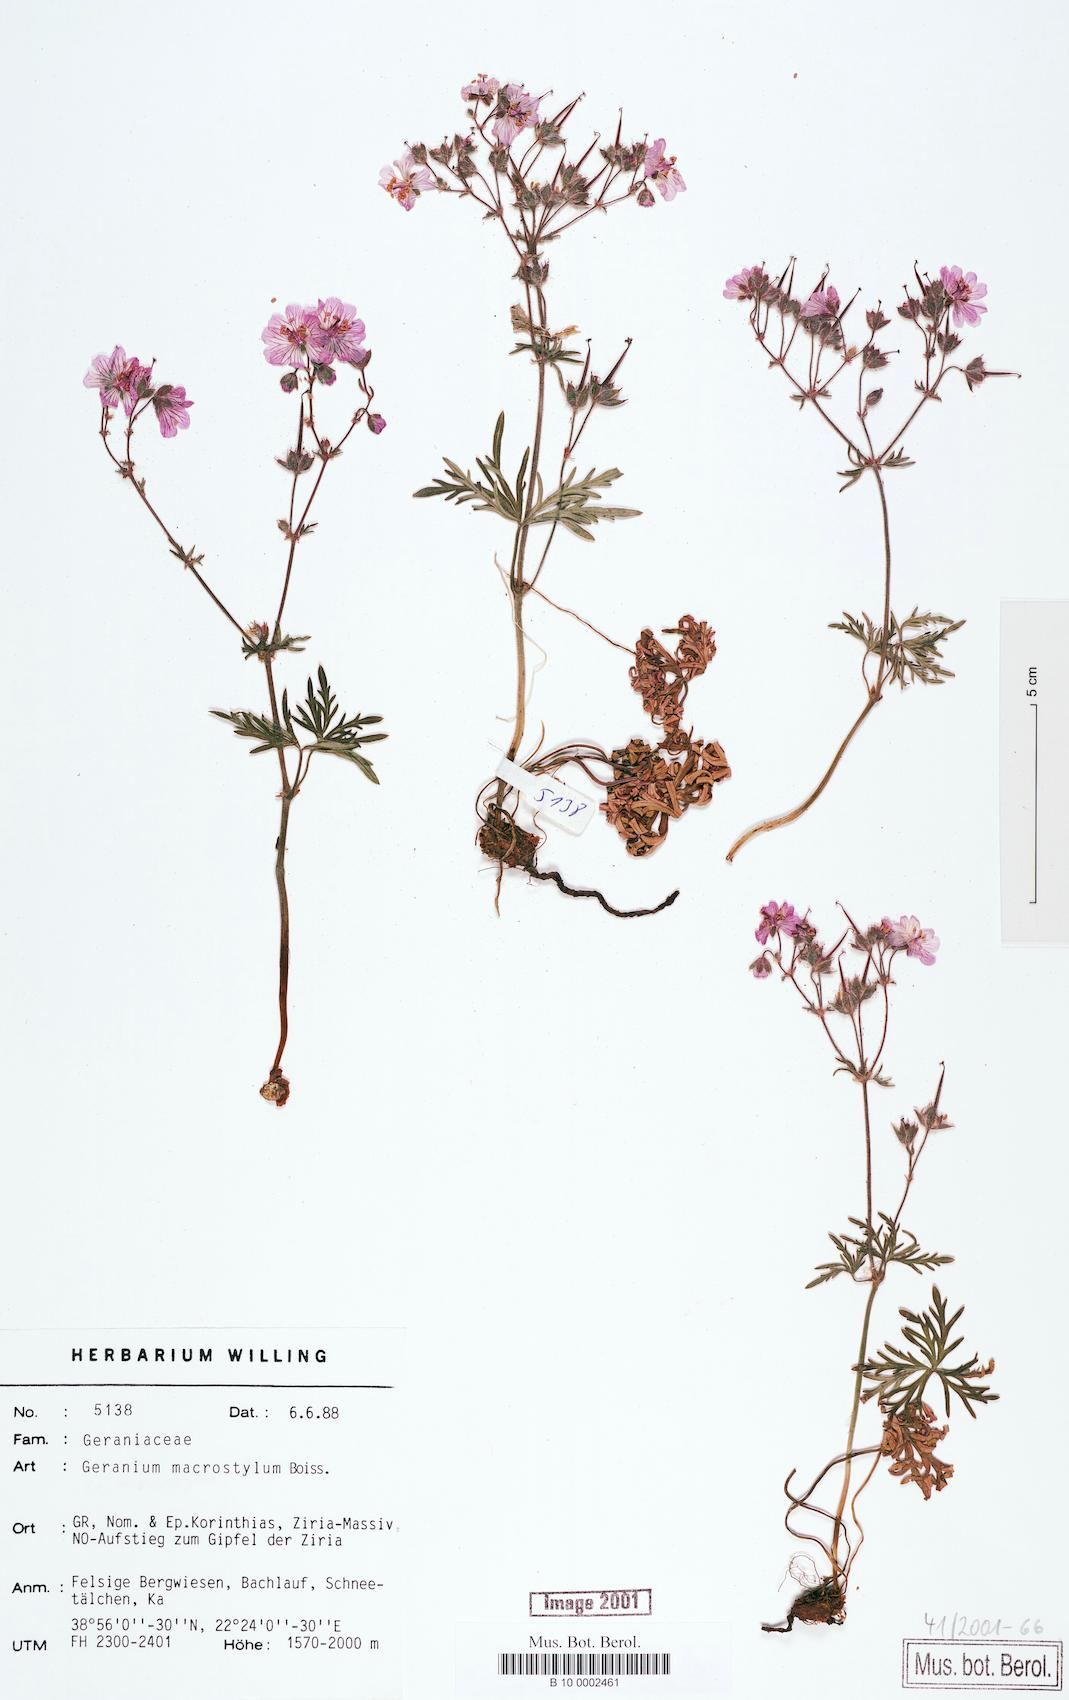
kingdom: Plantae
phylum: Tracheophyta
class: Magnoliopsida
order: Geraniales
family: Geraniaceae
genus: Geranium
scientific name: Geranium macrostylum
